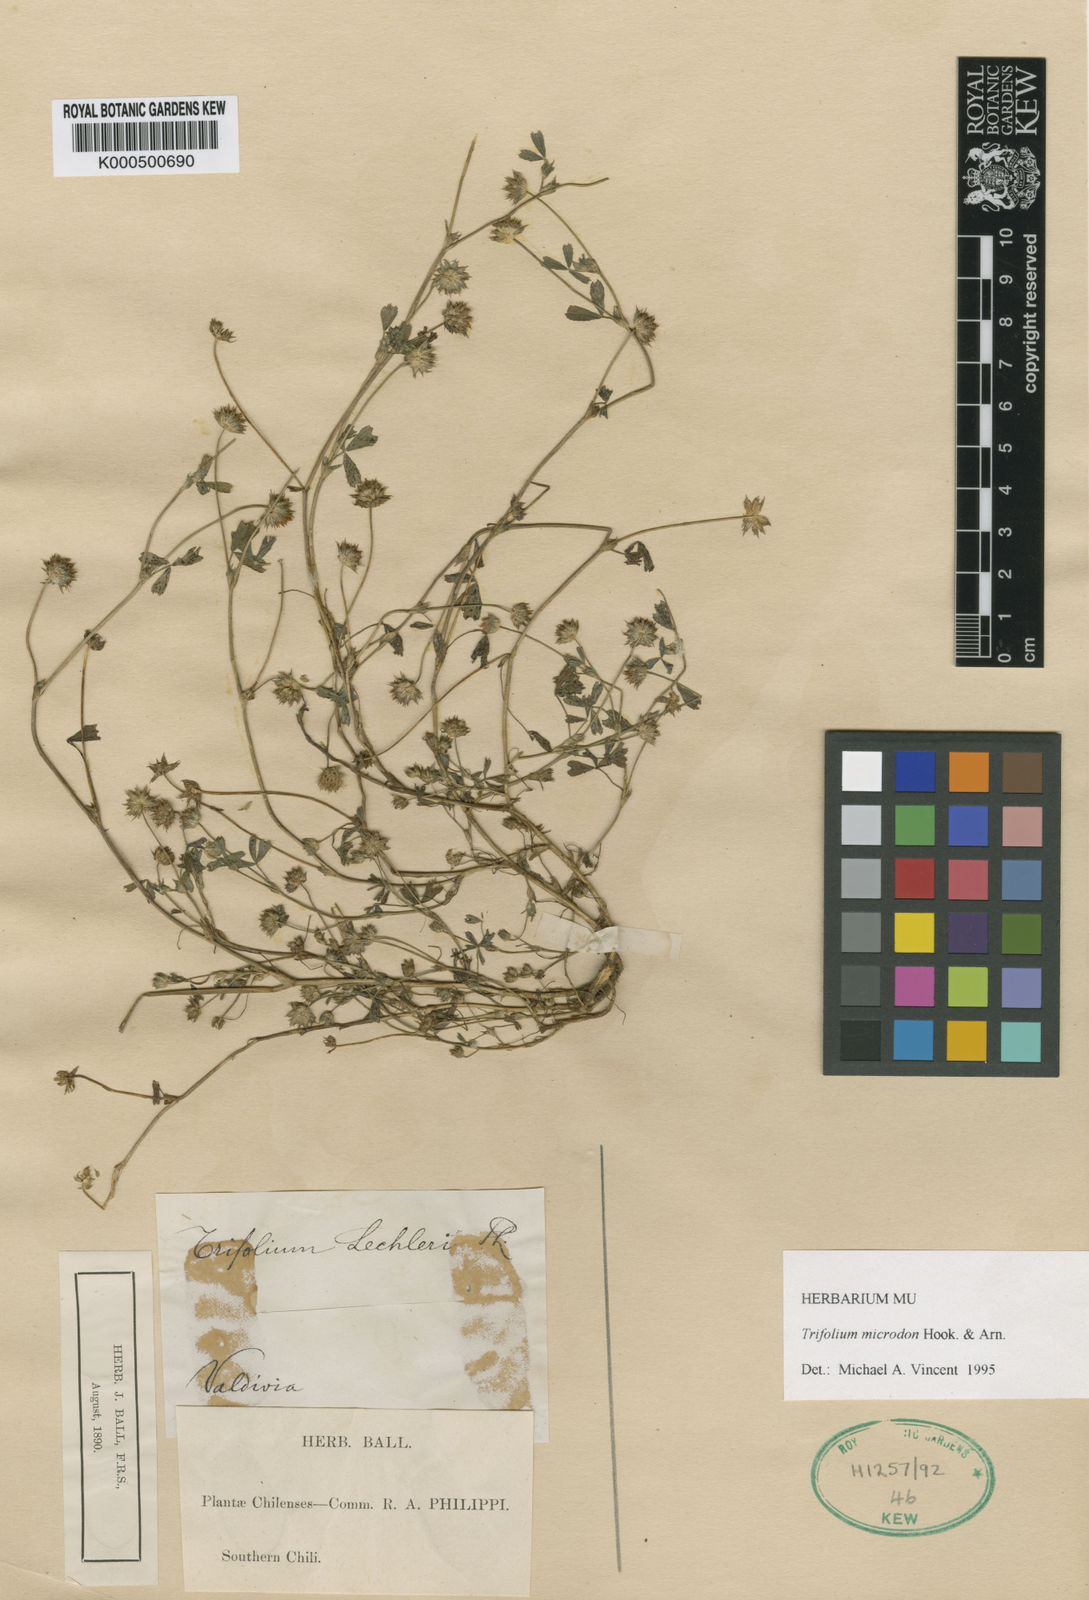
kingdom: Plantae
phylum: Tracheophyta
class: Magnoliopsida
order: Fabales
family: Fabaceae
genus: Trifolium
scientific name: Trifolium microdon
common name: Thimble clover
